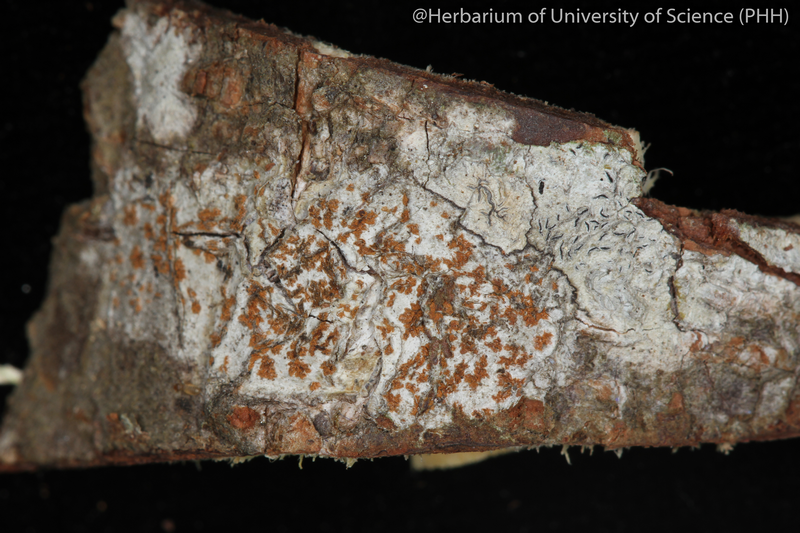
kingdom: Fungi
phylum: Ascomycota
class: Arthoniomycetes
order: Arthoniales
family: Arthoniaceae
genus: Arthonia
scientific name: Arthonia
